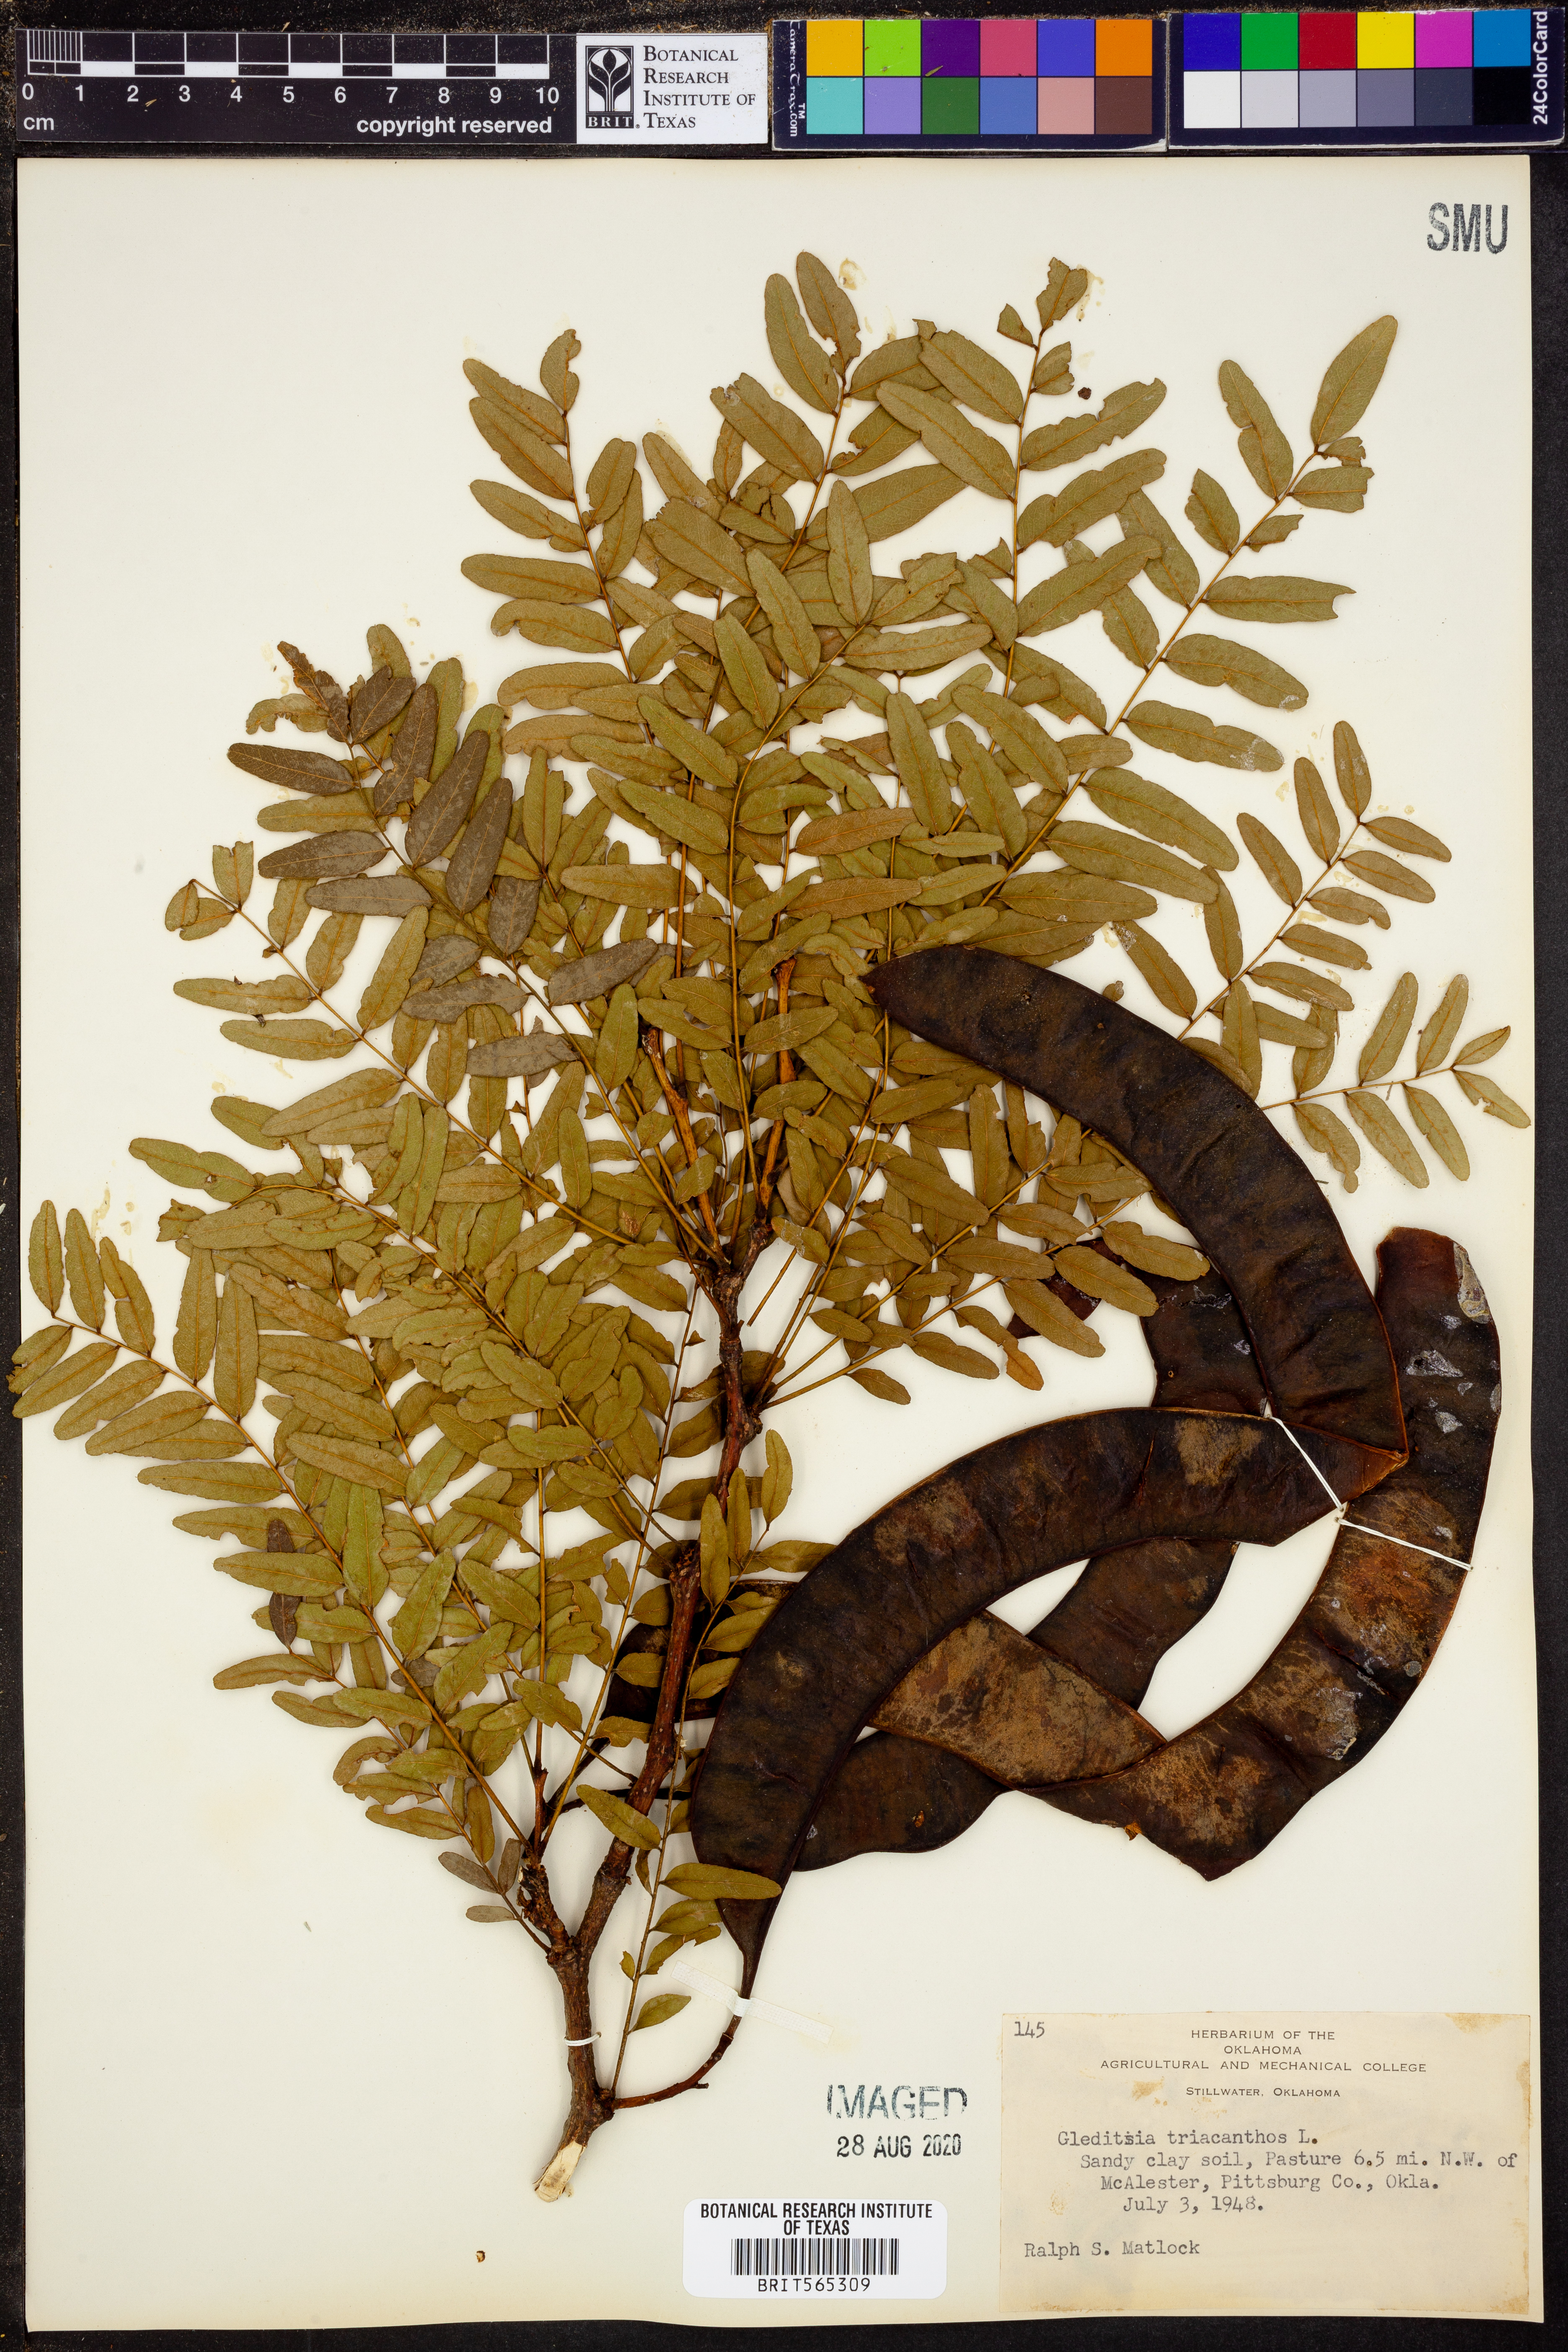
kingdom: Plantae
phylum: Tracheophyta
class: Magnoliopsida
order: Fabales
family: Fabaceae
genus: Gleditsia
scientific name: Gleditsia triacanthos
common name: Common honeylocust
